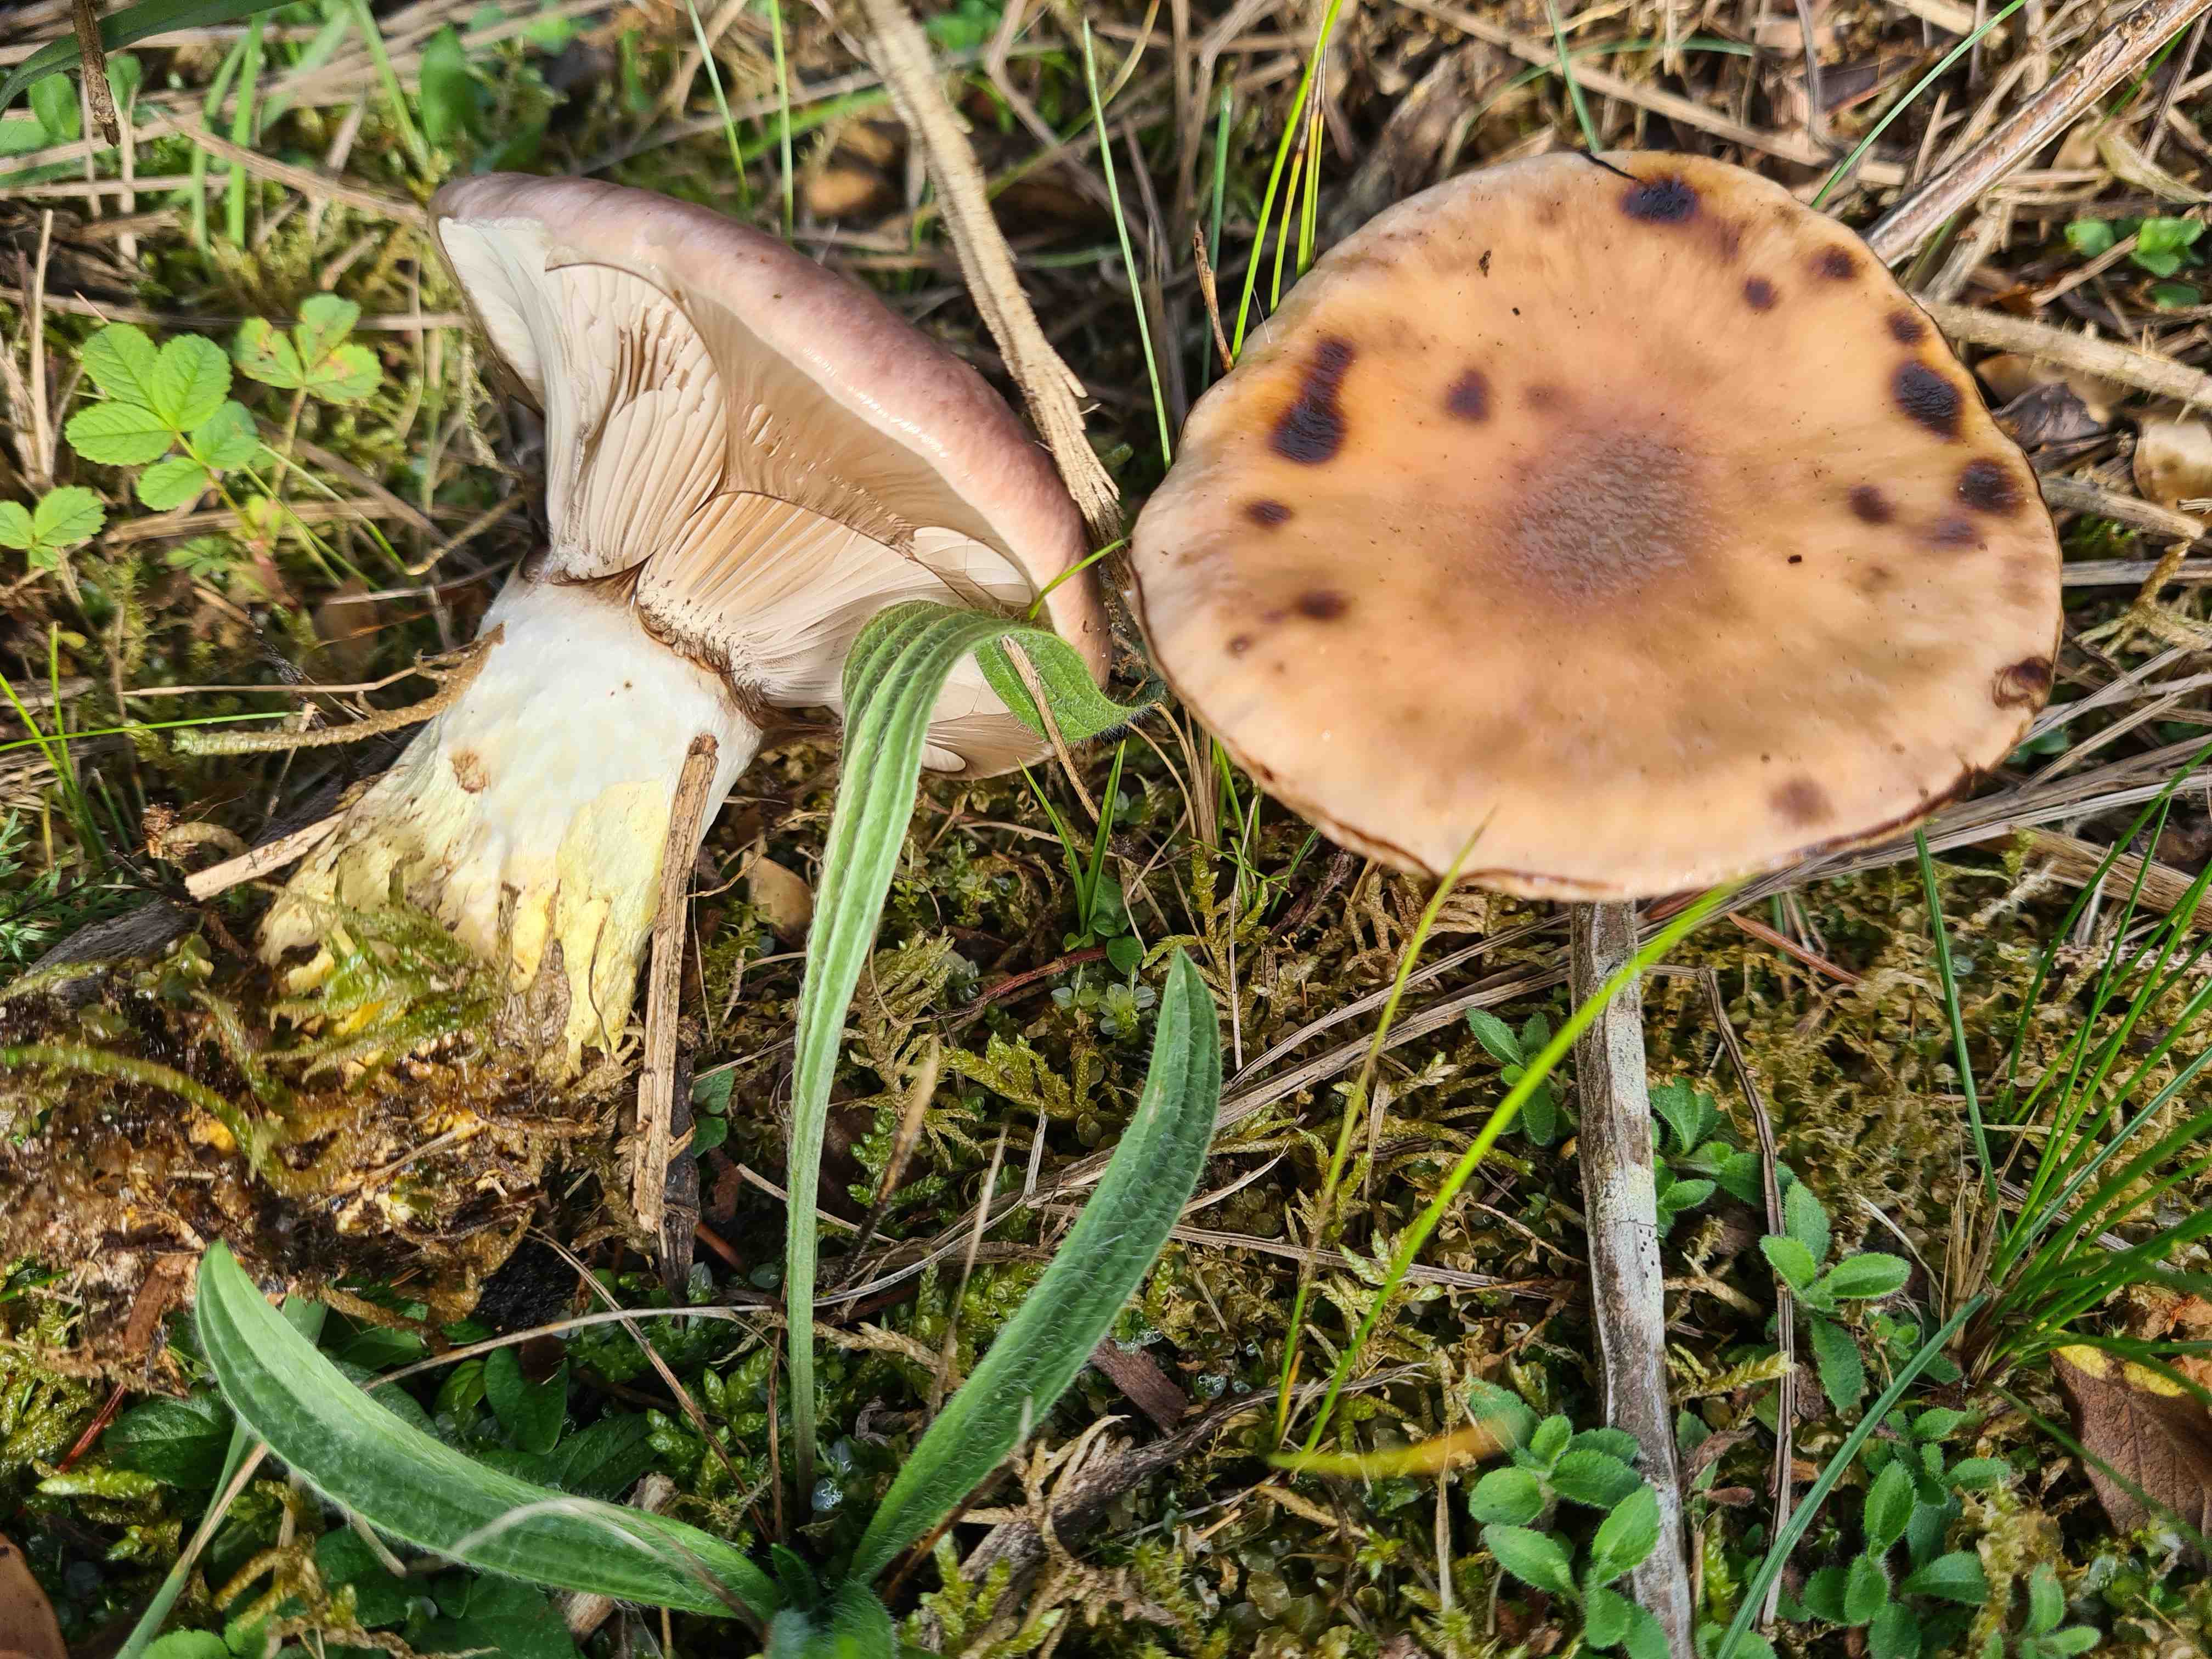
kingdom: Fungi
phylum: Basidiomycota
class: Agaricomycetes
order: Boletales
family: Gomphidiaceae
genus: Gomphidius
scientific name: Gomphidius glutinosus
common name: grå slimslør
